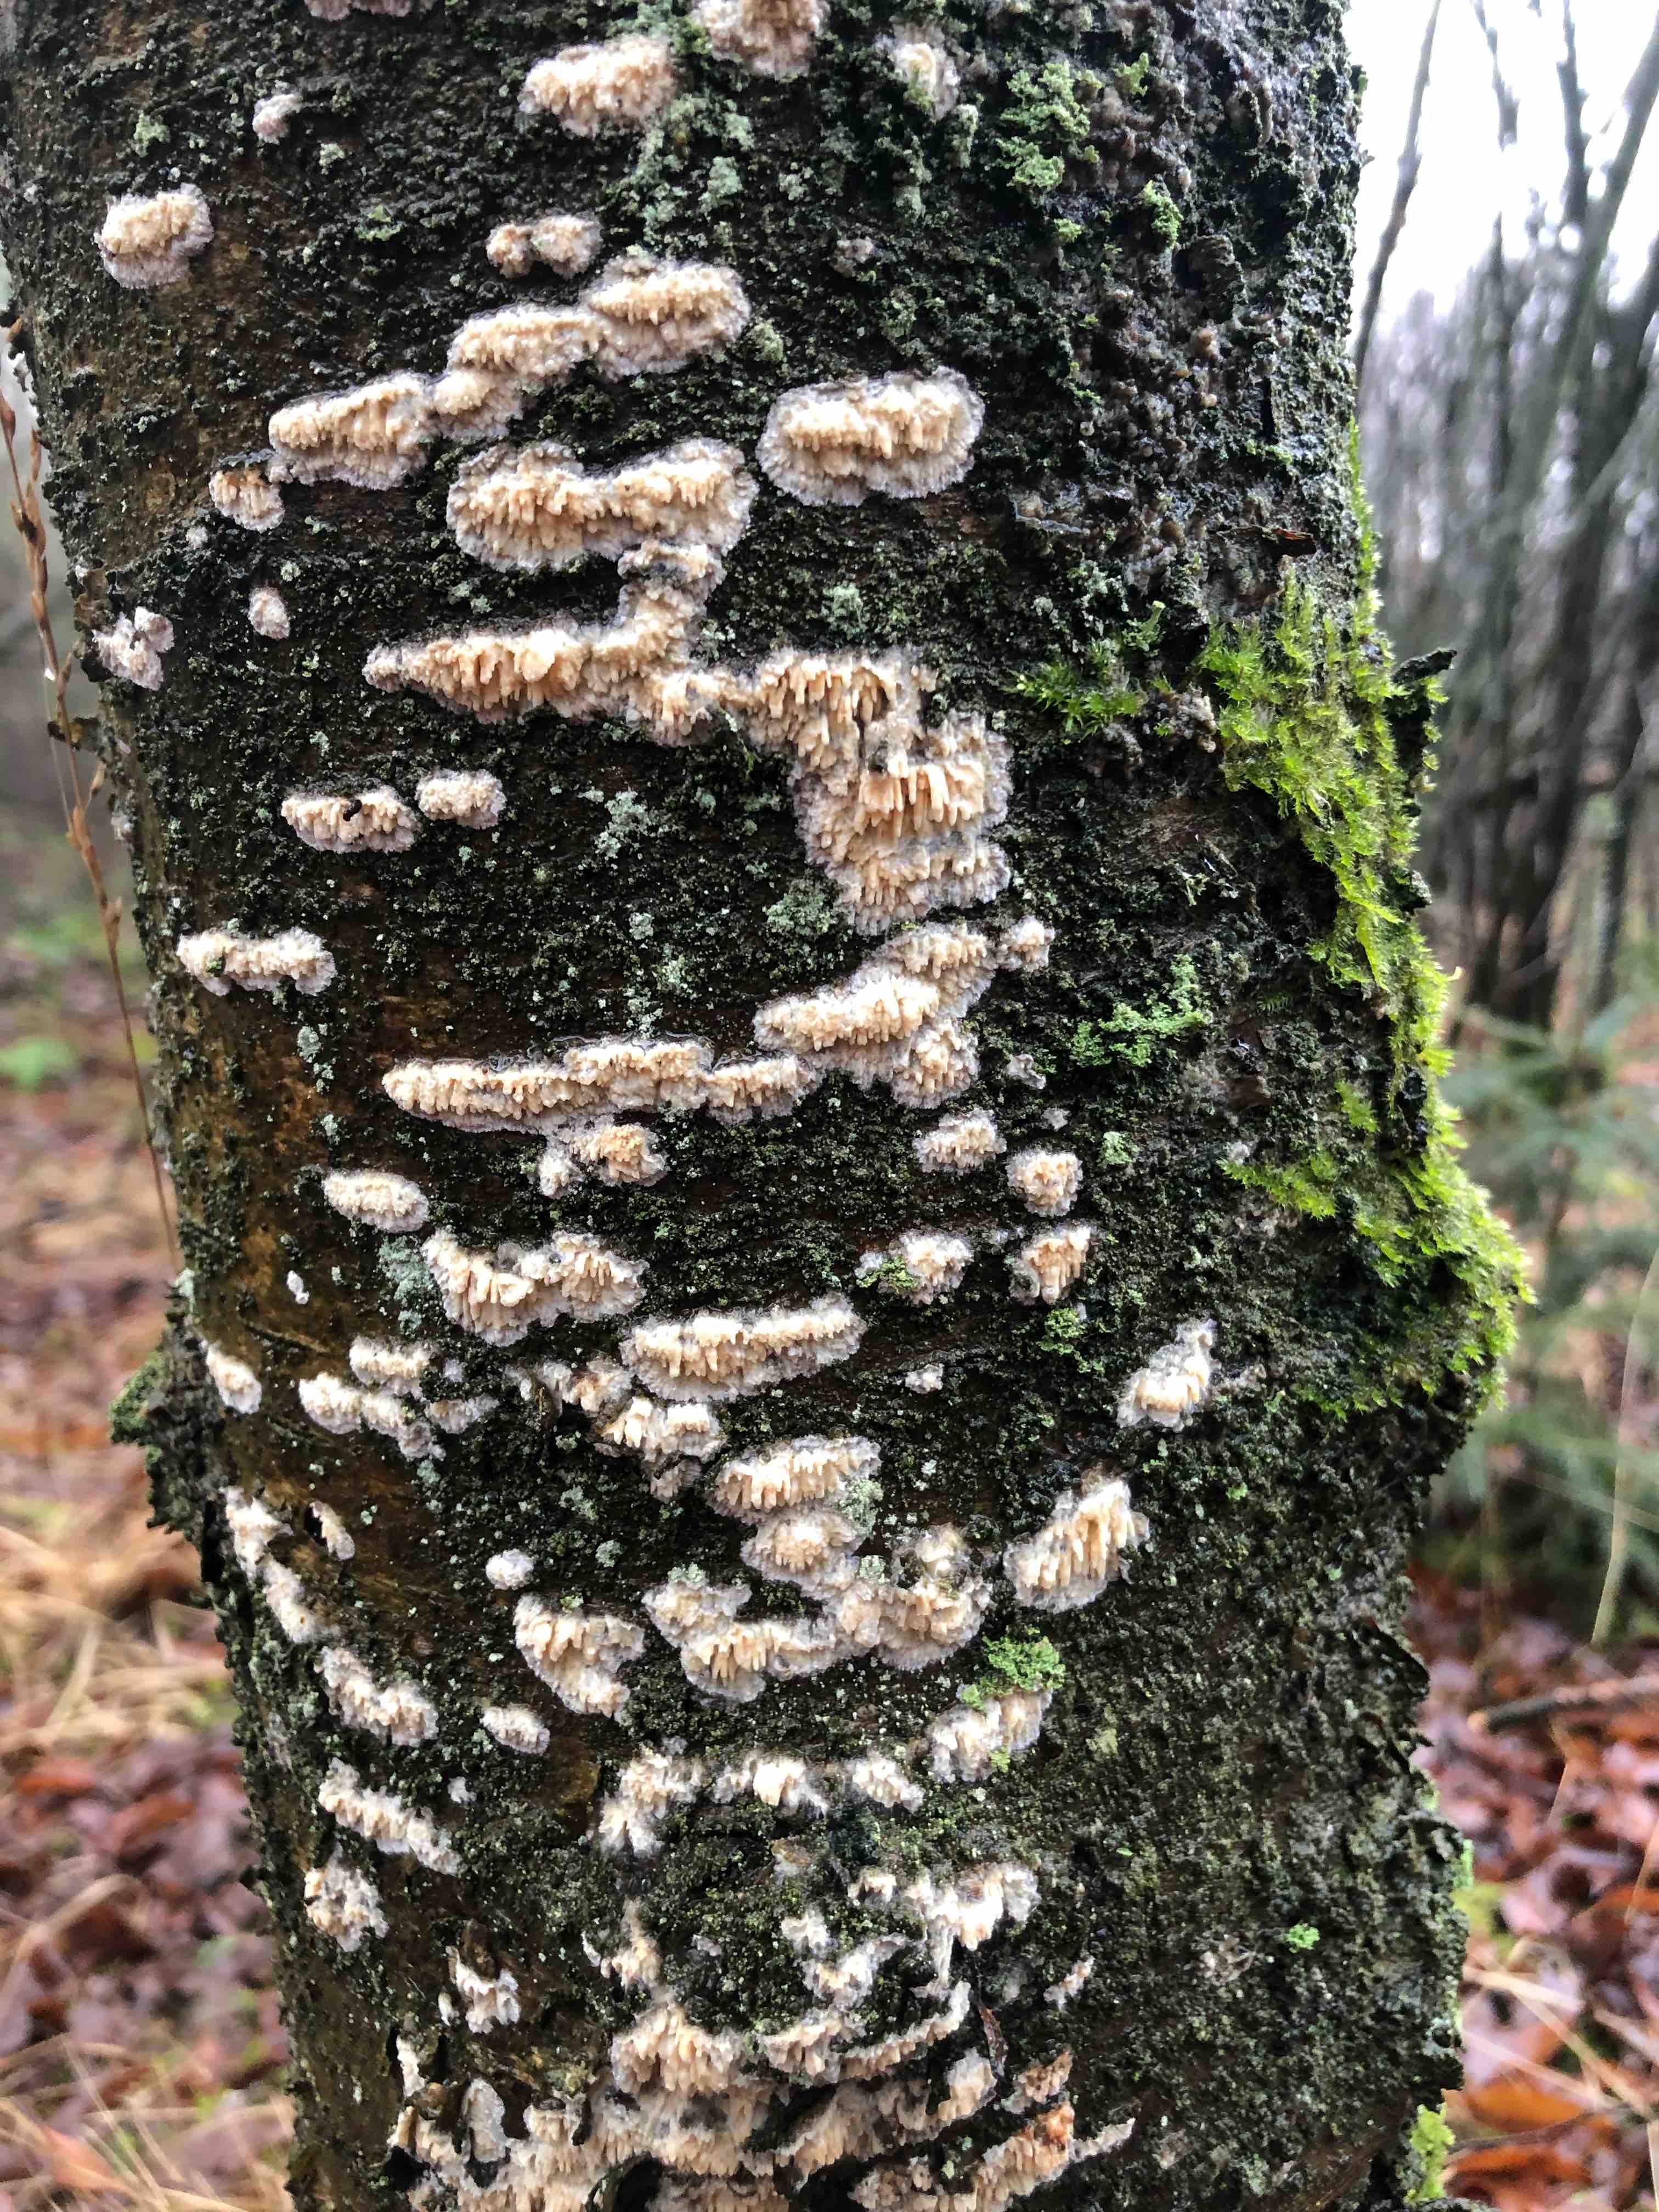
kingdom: Fungi
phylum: Basidiomycota
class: Agaricomycetes
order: Hymenochaetales
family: Schizoporaceae
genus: Schizopora
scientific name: Schizopora paradoxa
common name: hvid tandsvamp
